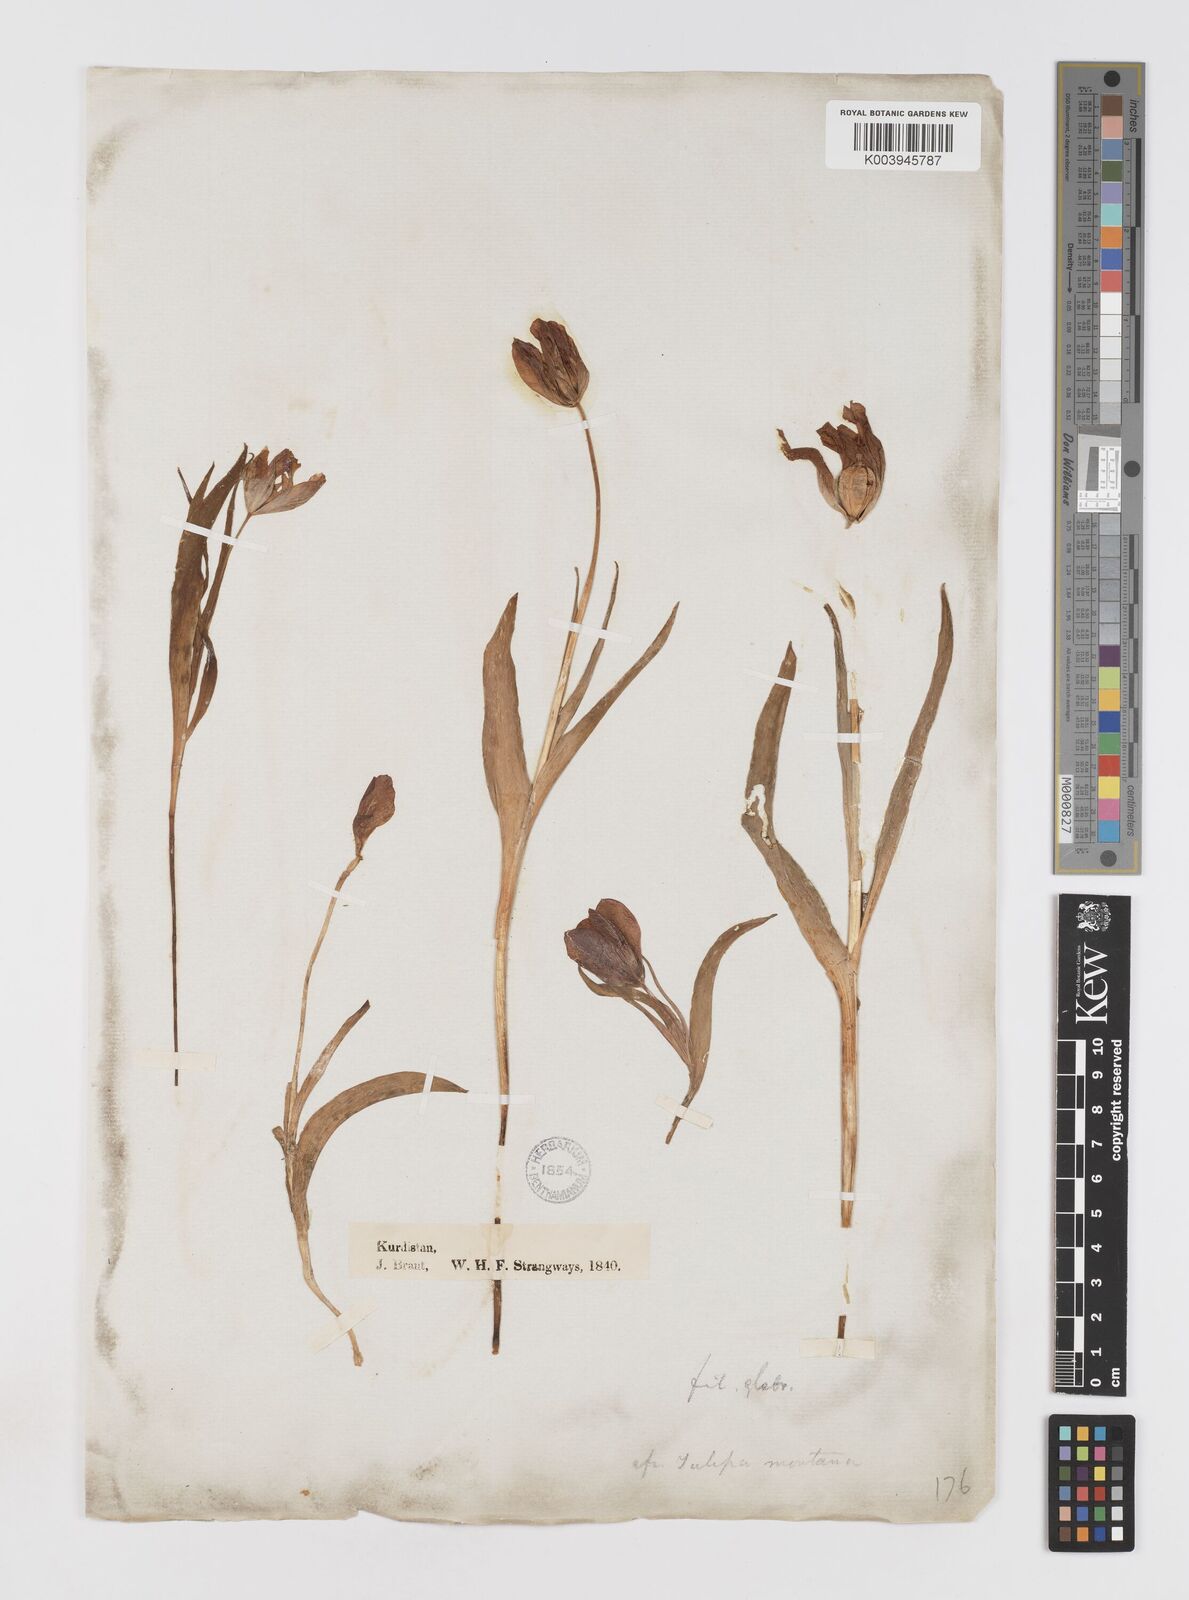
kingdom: Plantae
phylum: Tracheophyta
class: Liliopsida
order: Liliales
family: Liliaceae
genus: Tulipa
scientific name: Tulipa foliosa
